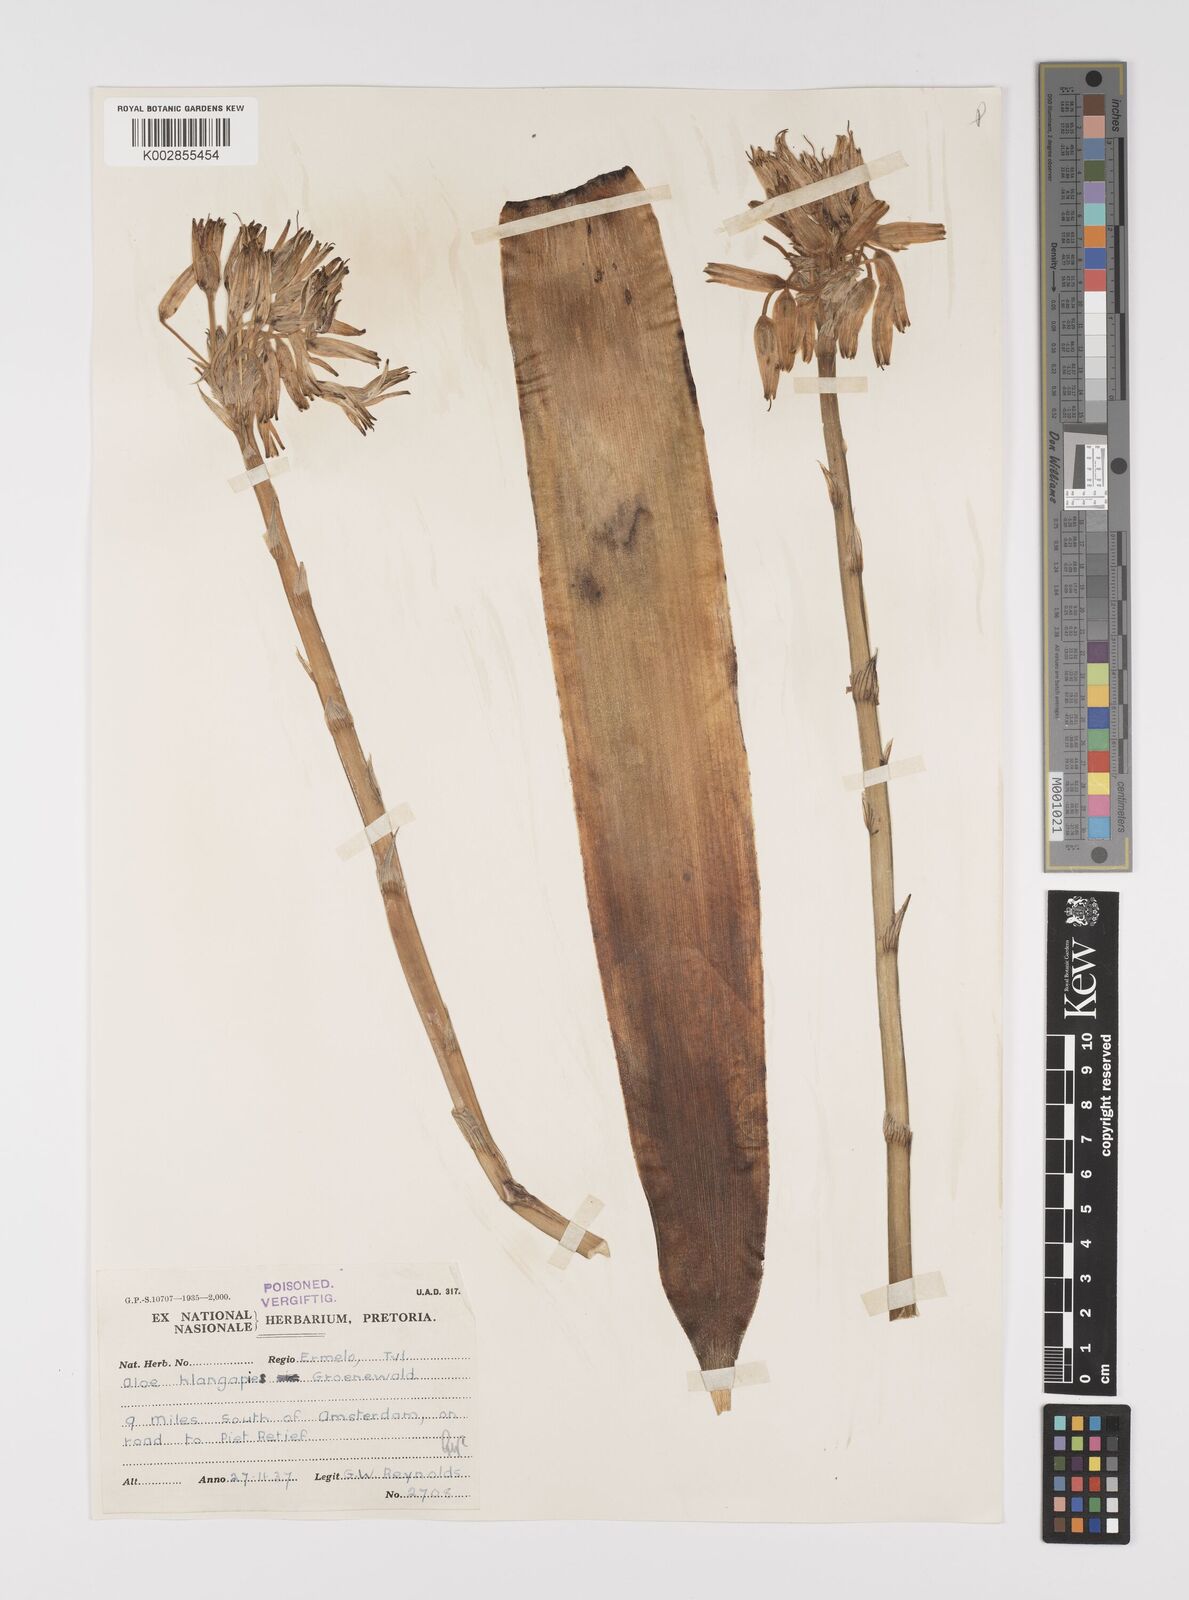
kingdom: Plantae
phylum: Tracheophyta
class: Liliopsida
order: Asparagales
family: Asphodelaceae
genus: Aloe
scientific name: Aloe hlangapies
